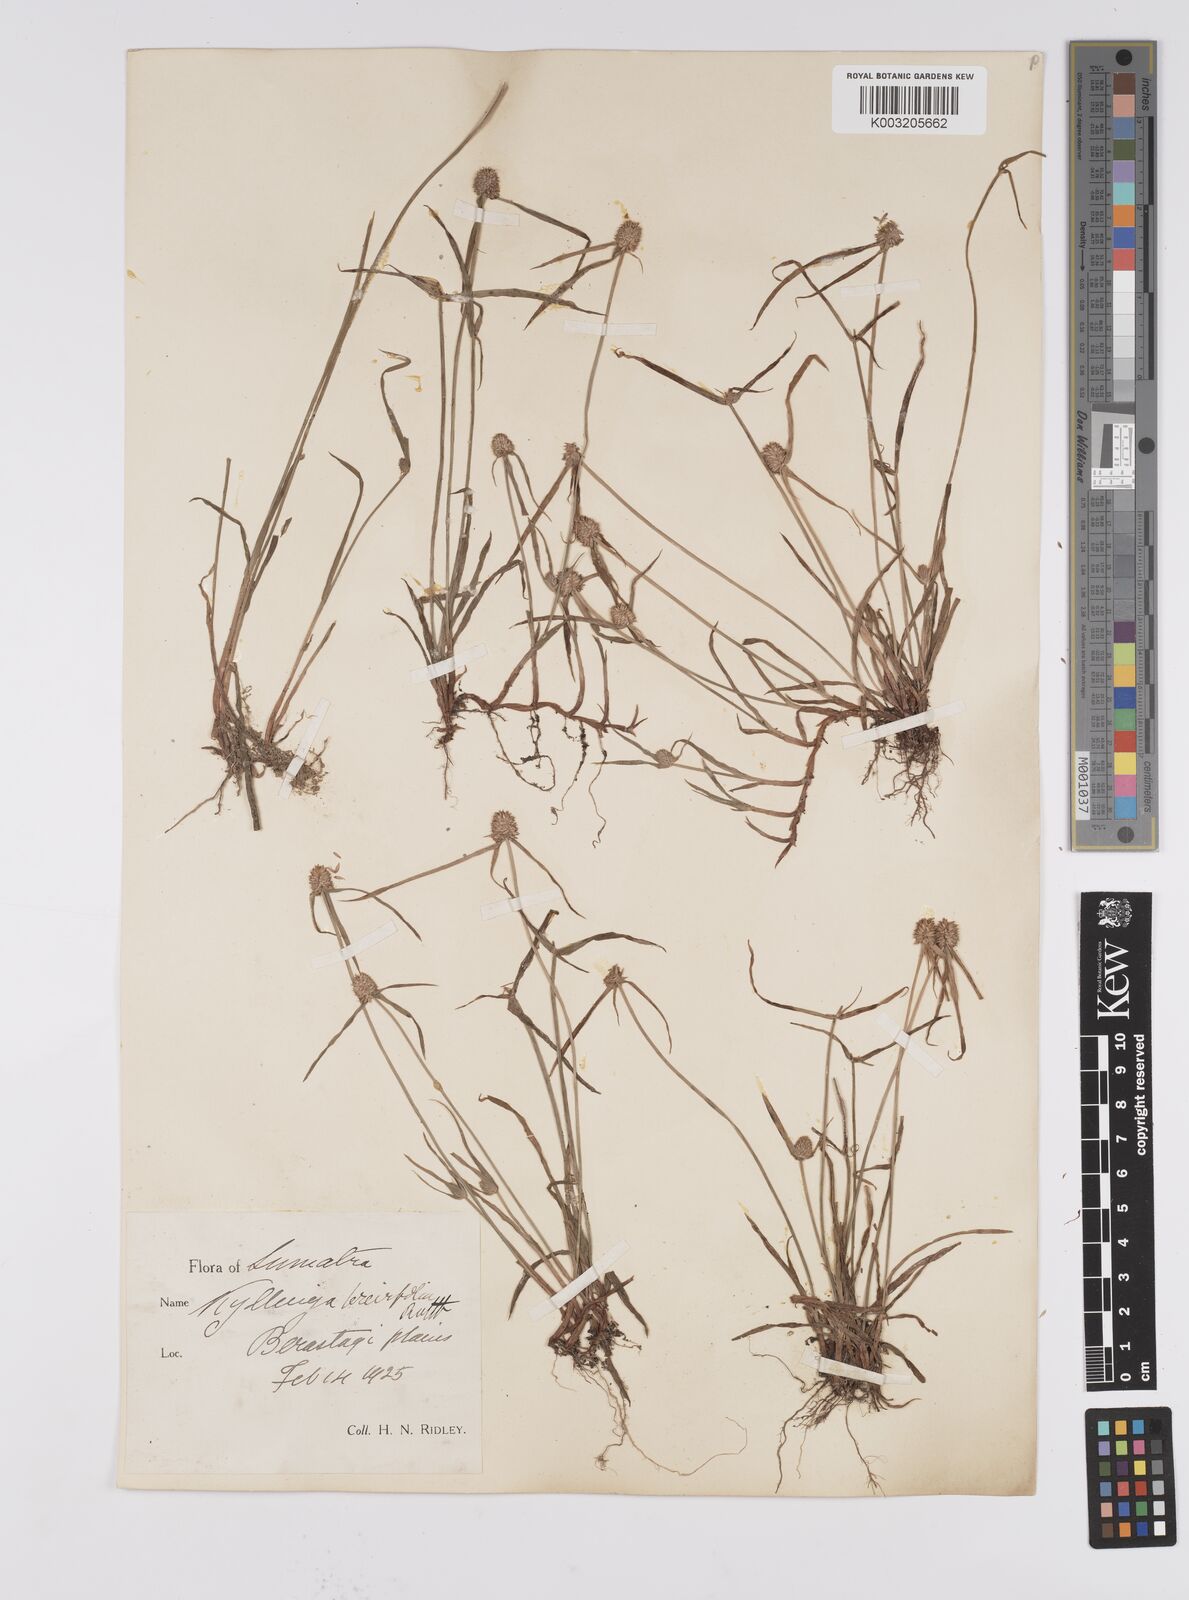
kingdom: Plantae
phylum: Tracheophyta
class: Liliopsida
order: Poales
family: Cyperaceae
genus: Cyperus
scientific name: Cyperus brevifolius
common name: Globe kyllinga
